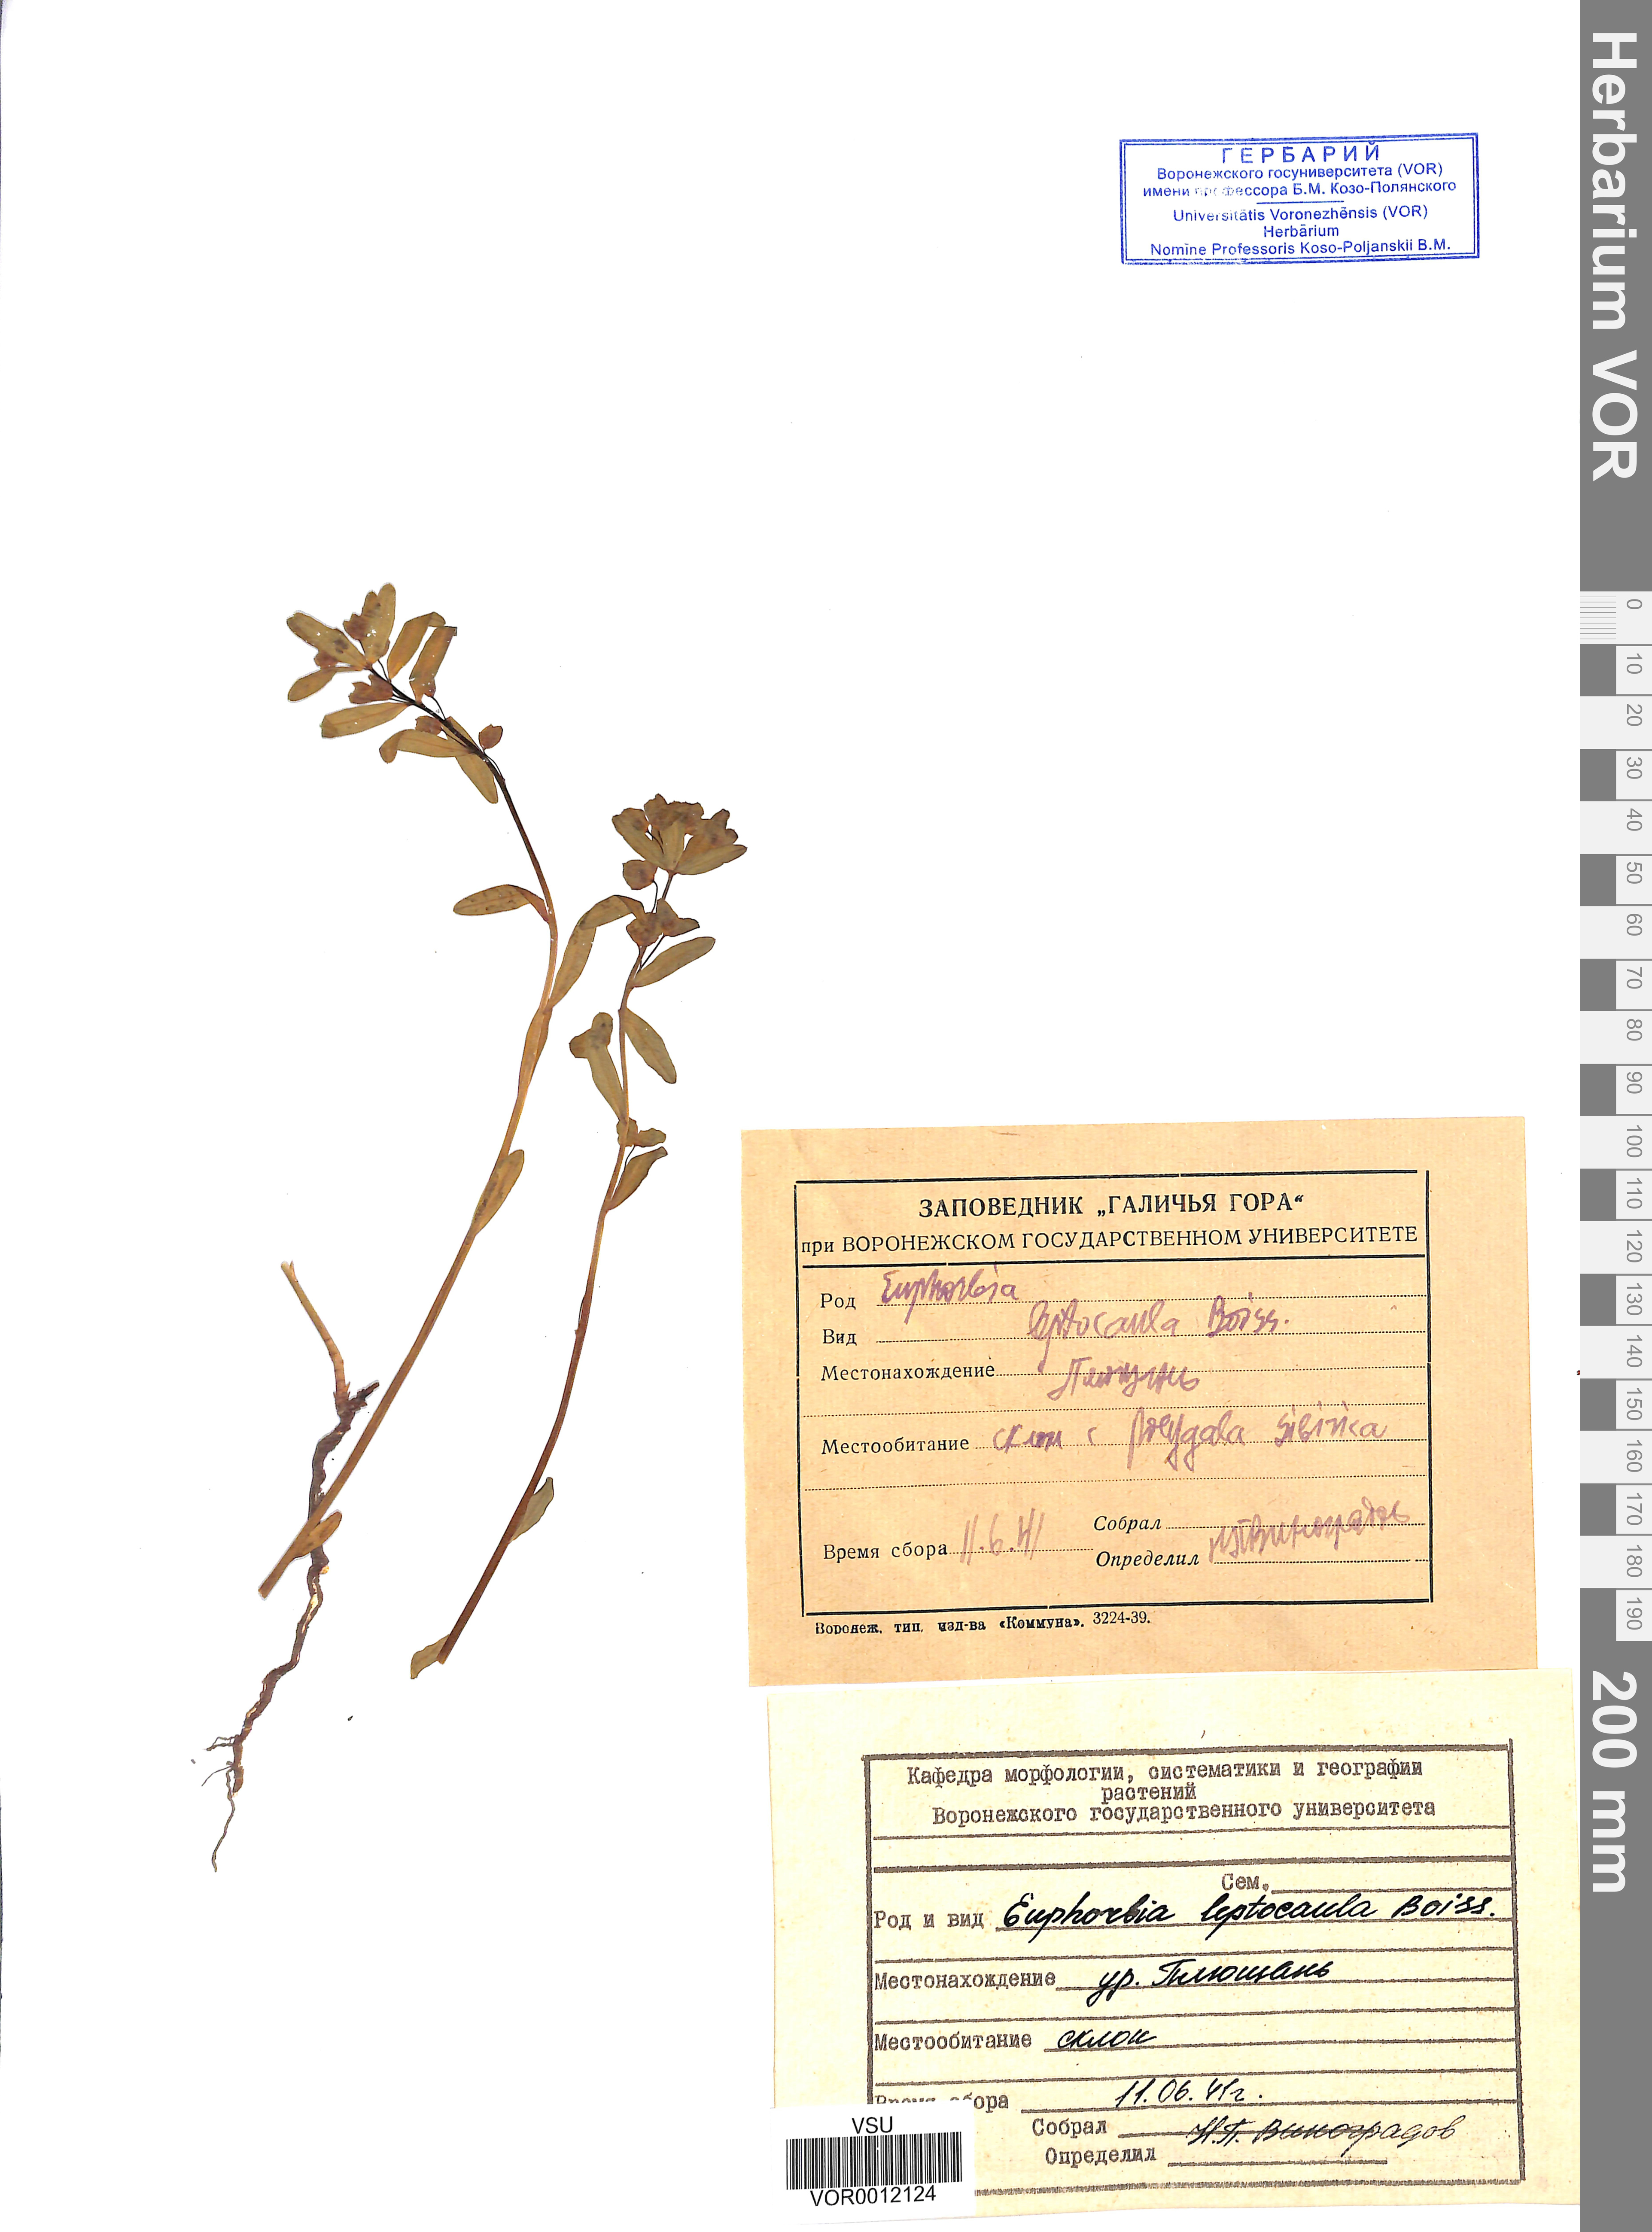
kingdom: Plantae
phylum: Tracheophyta
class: Magnoliopsida
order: Malpighiales
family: Euphorbiaceae
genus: Euphorbia
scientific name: Euphorbia leptocaula
